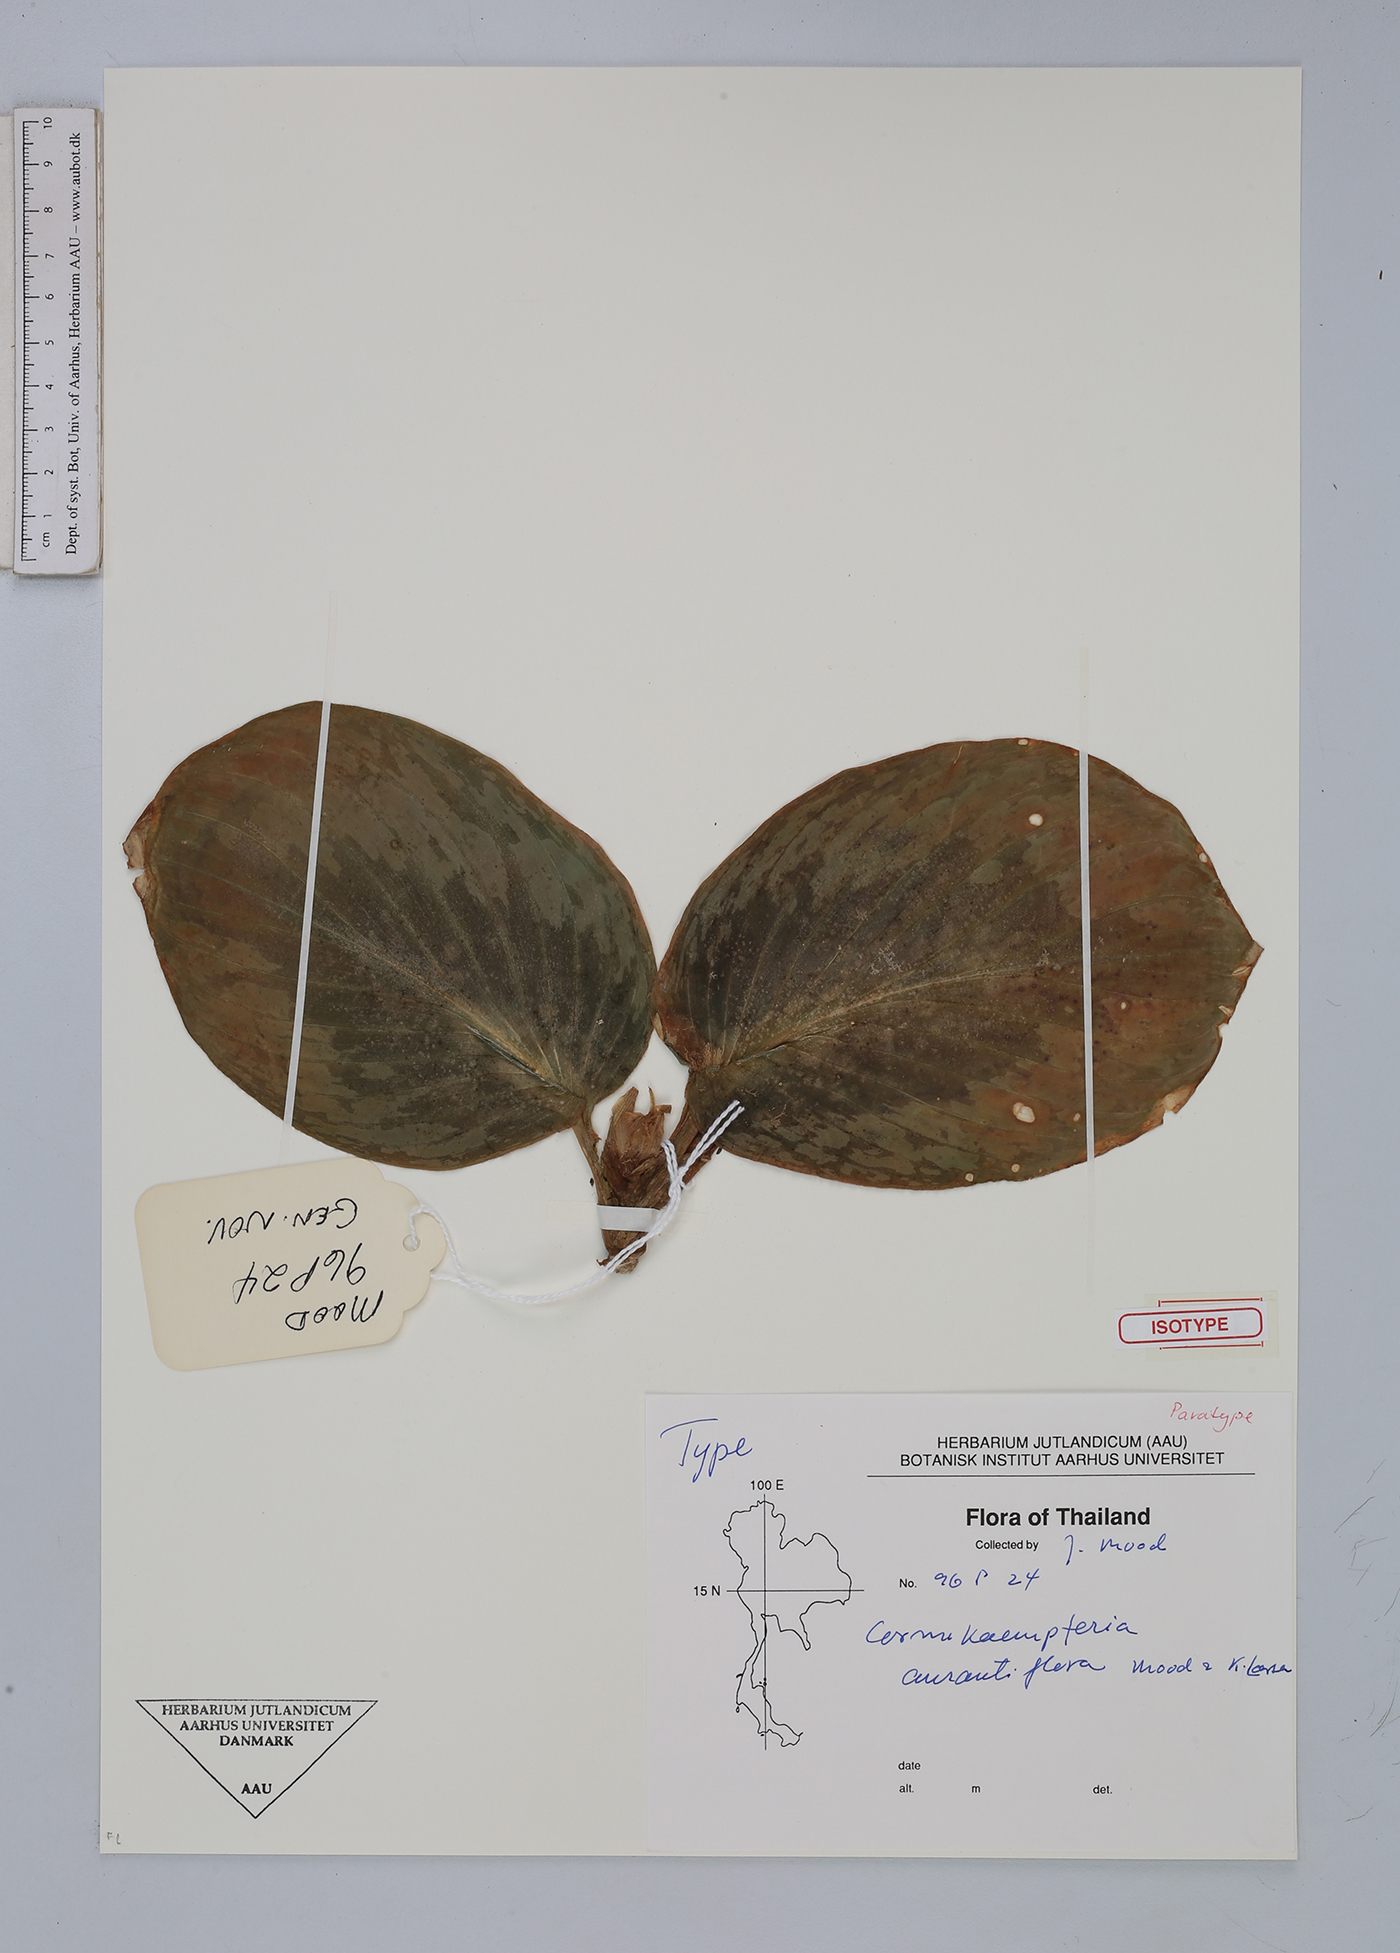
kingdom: Plantae
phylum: Tracheophyta
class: Liliopsida
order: Zingiberales
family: Zingiberaceae
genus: Cornukaempferia
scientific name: Cornukaempferia aurantiiflora
